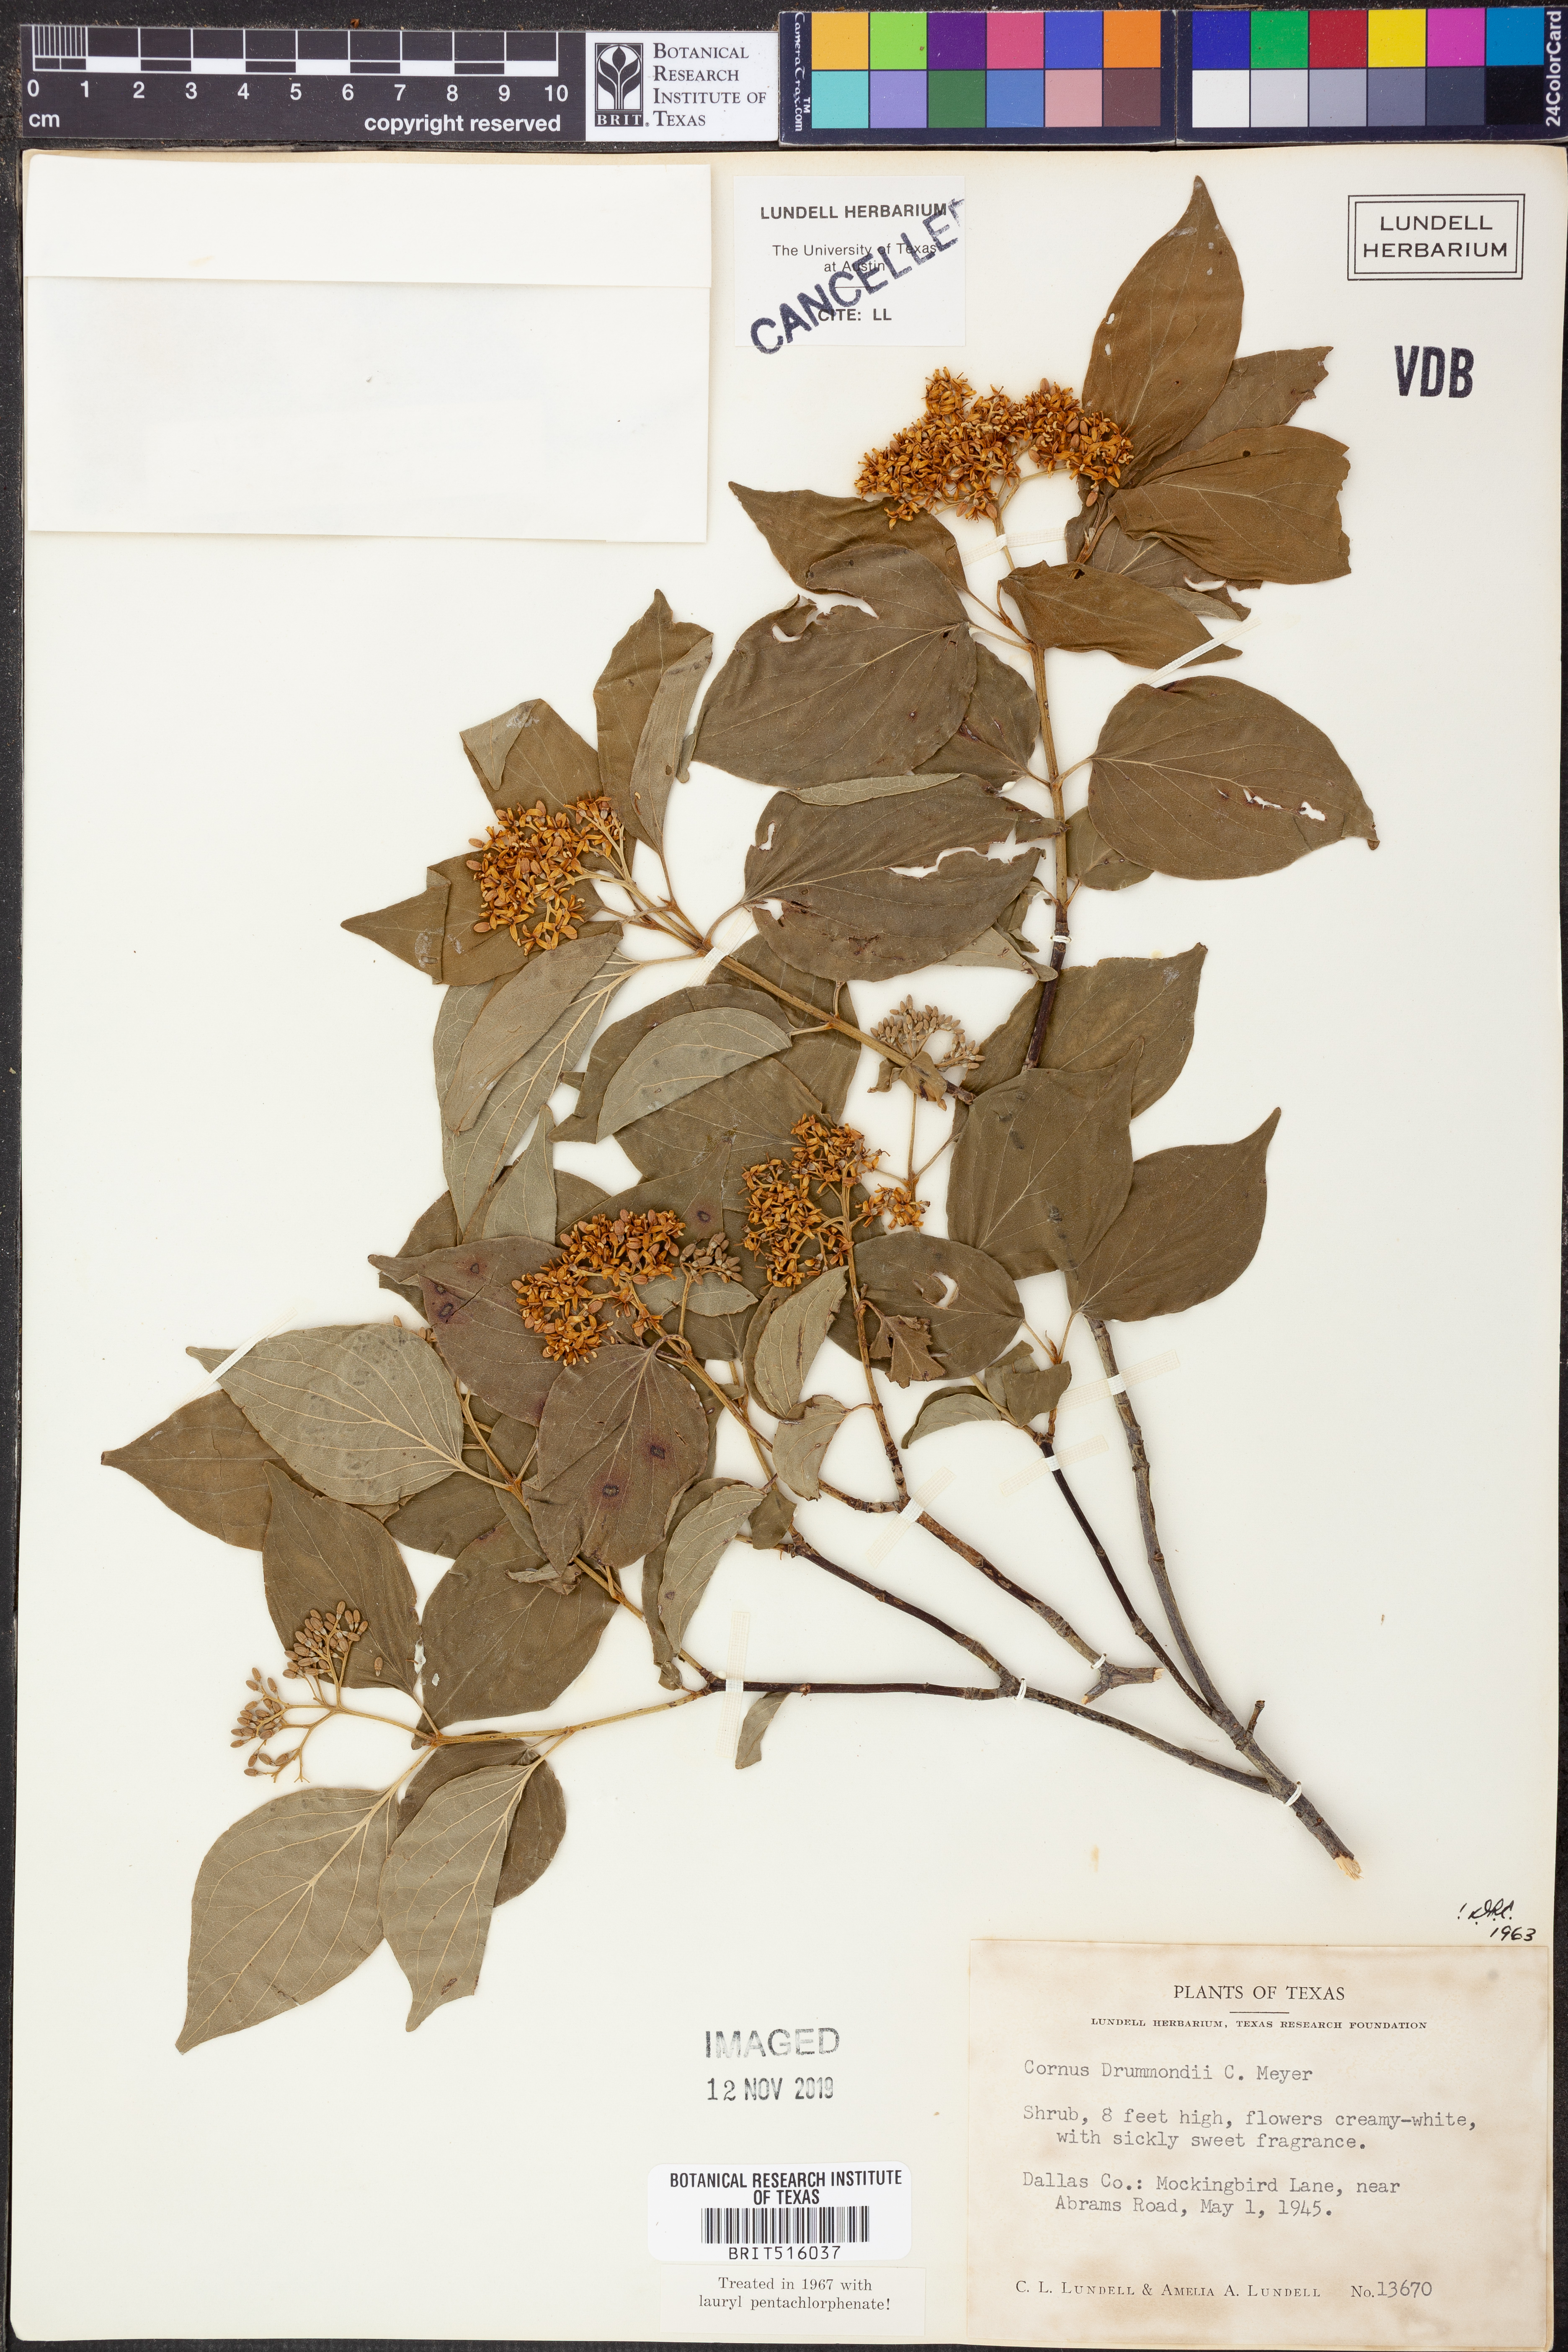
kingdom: Plantae
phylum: Tracheophyta
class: Magnoliopsida
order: Cornales
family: Cornaceae
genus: Cornus
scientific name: Cornus drummondii
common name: Rough-leaf dogwood
